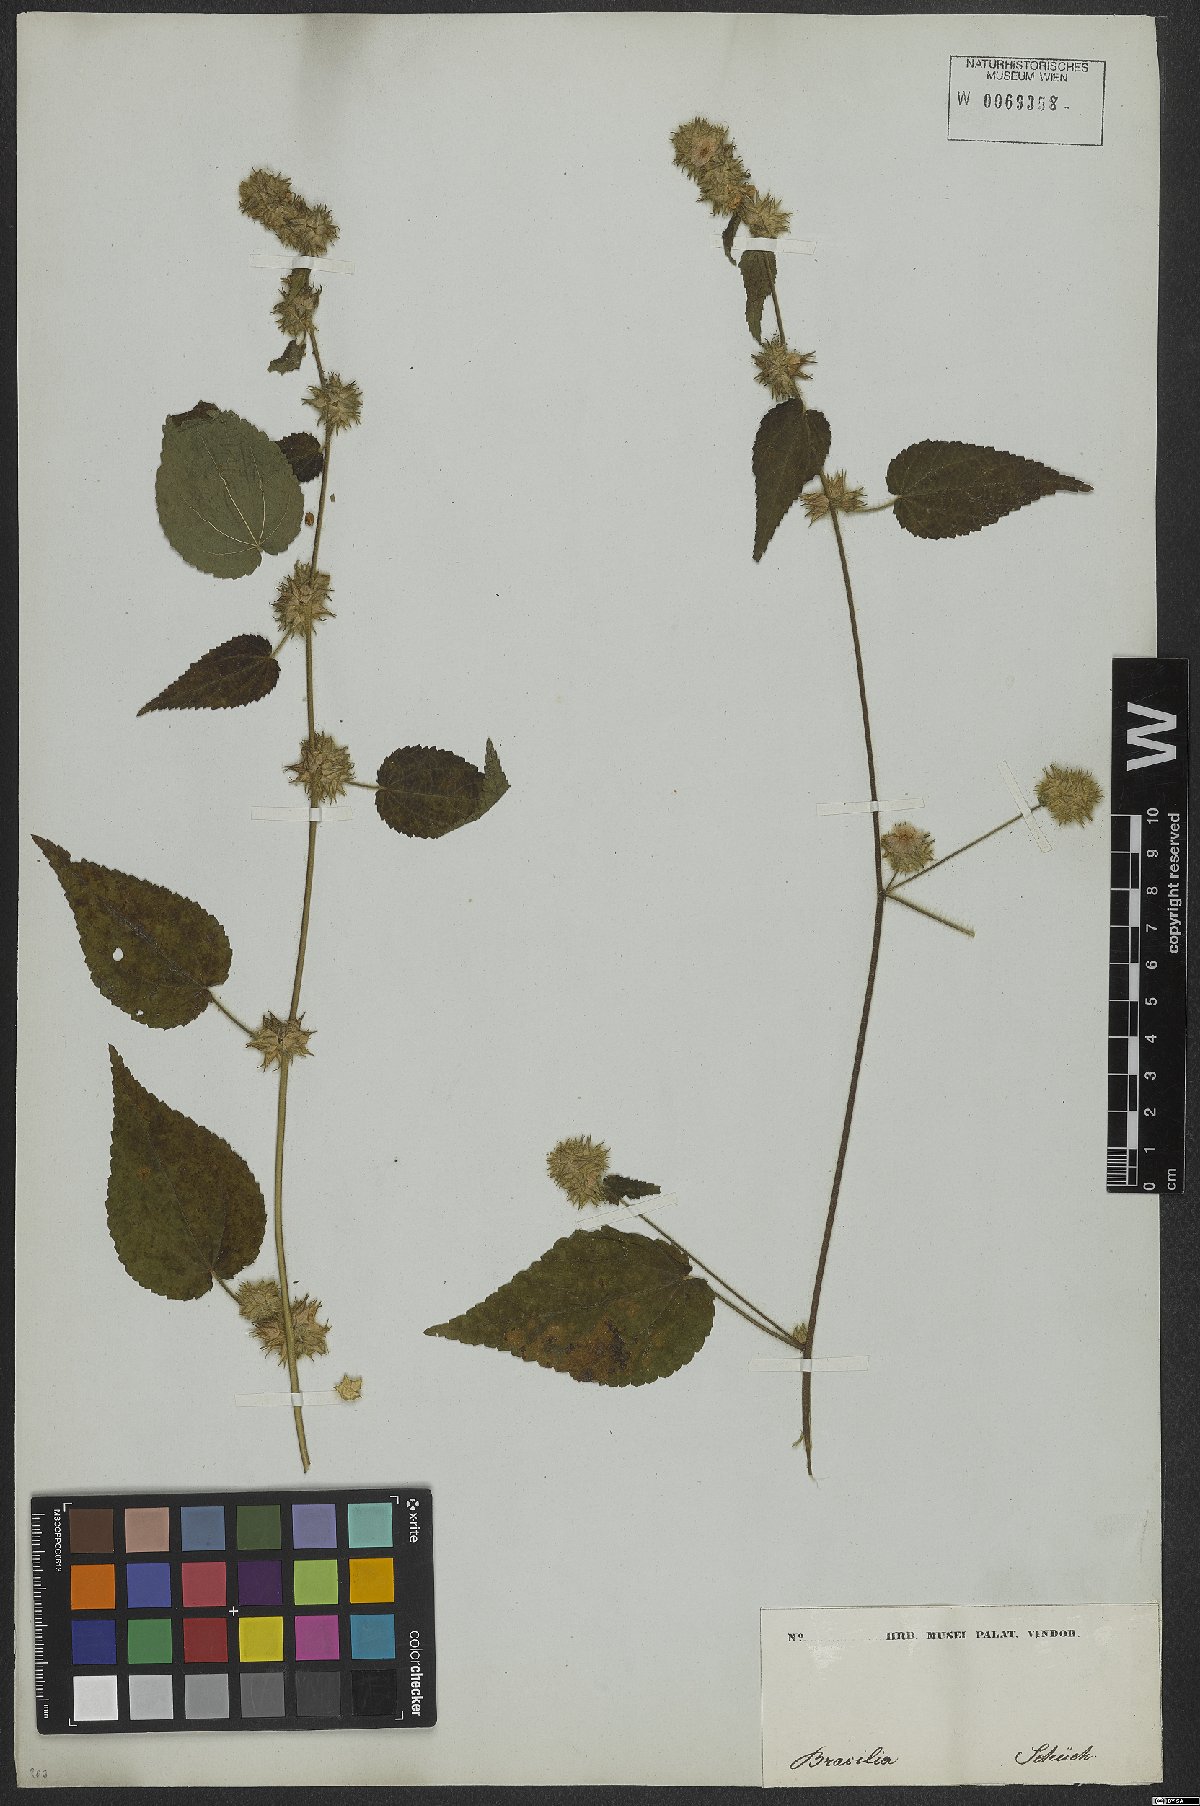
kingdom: Plantae
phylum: Tracheophyta
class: Magnoliopsida
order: Malvales
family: Malvaceae
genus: Sida
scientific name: Sida urens
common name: Tropical fanpetals
